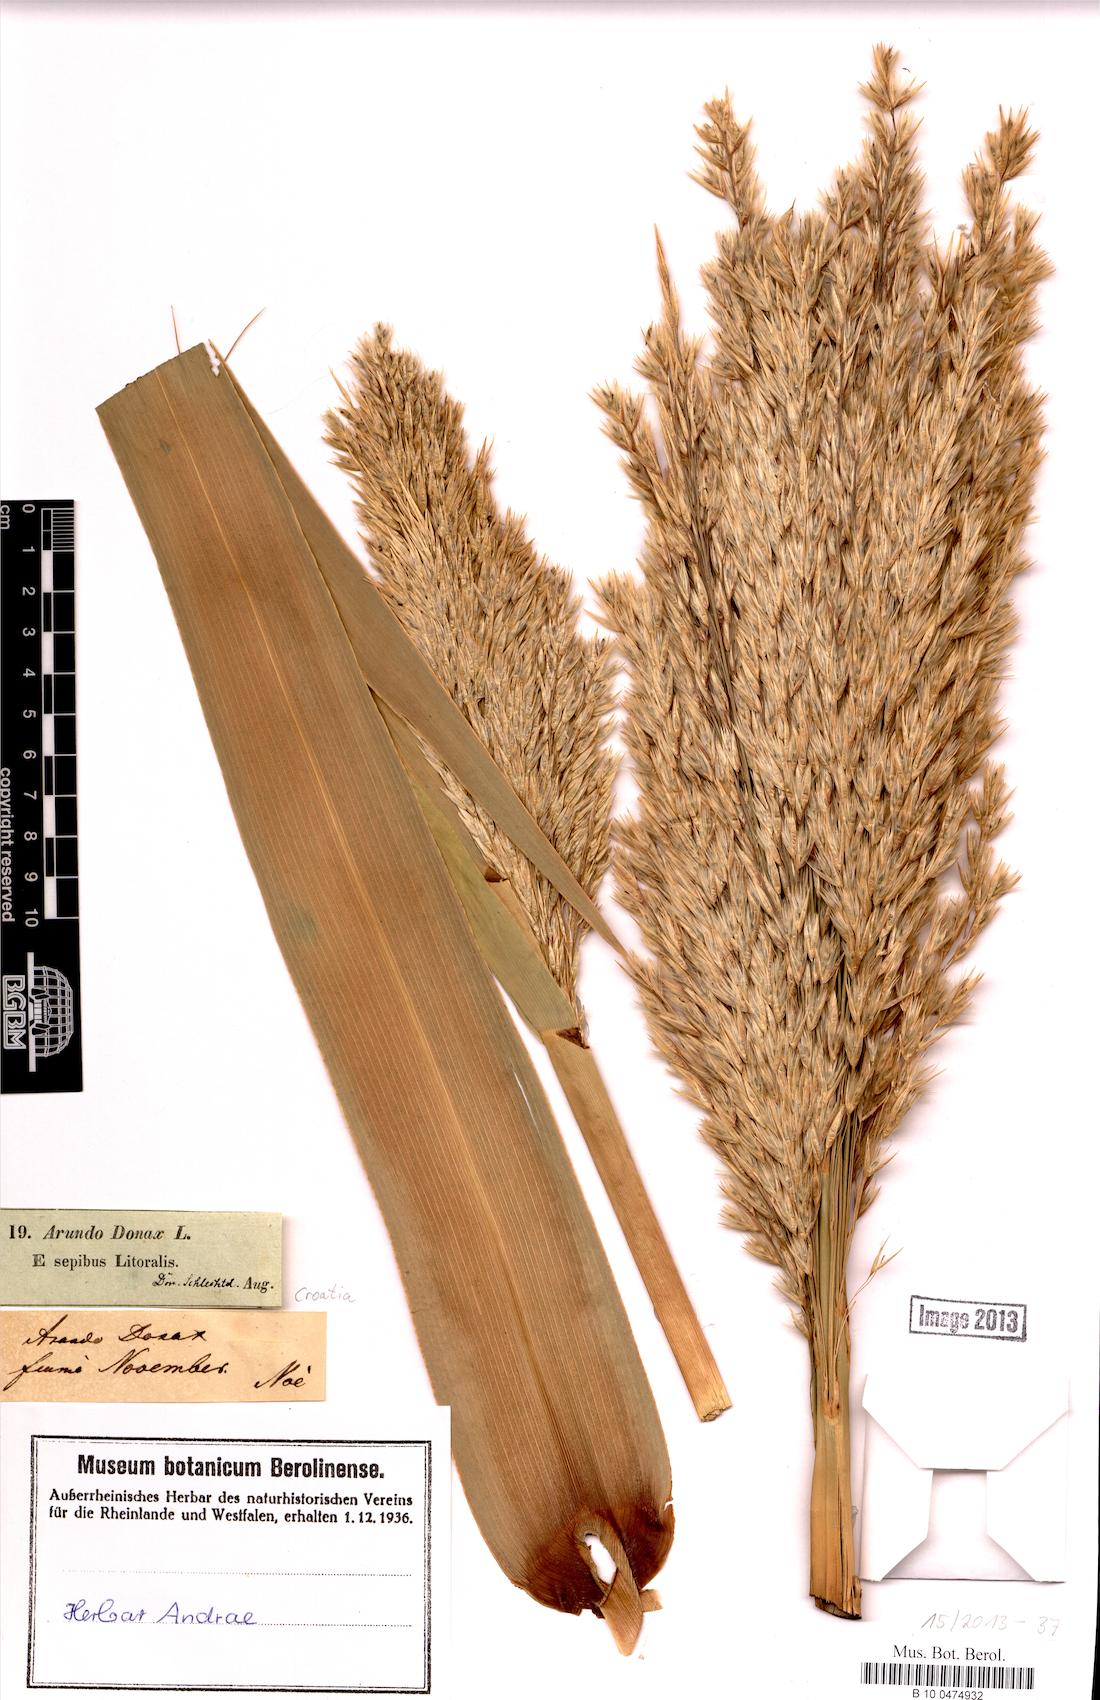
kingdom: Plantae
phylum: Tracheophyta
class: Liliopsida
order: Poales
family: Poaceae
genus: Arundo
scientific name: Arundo donax
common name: Giant reed
